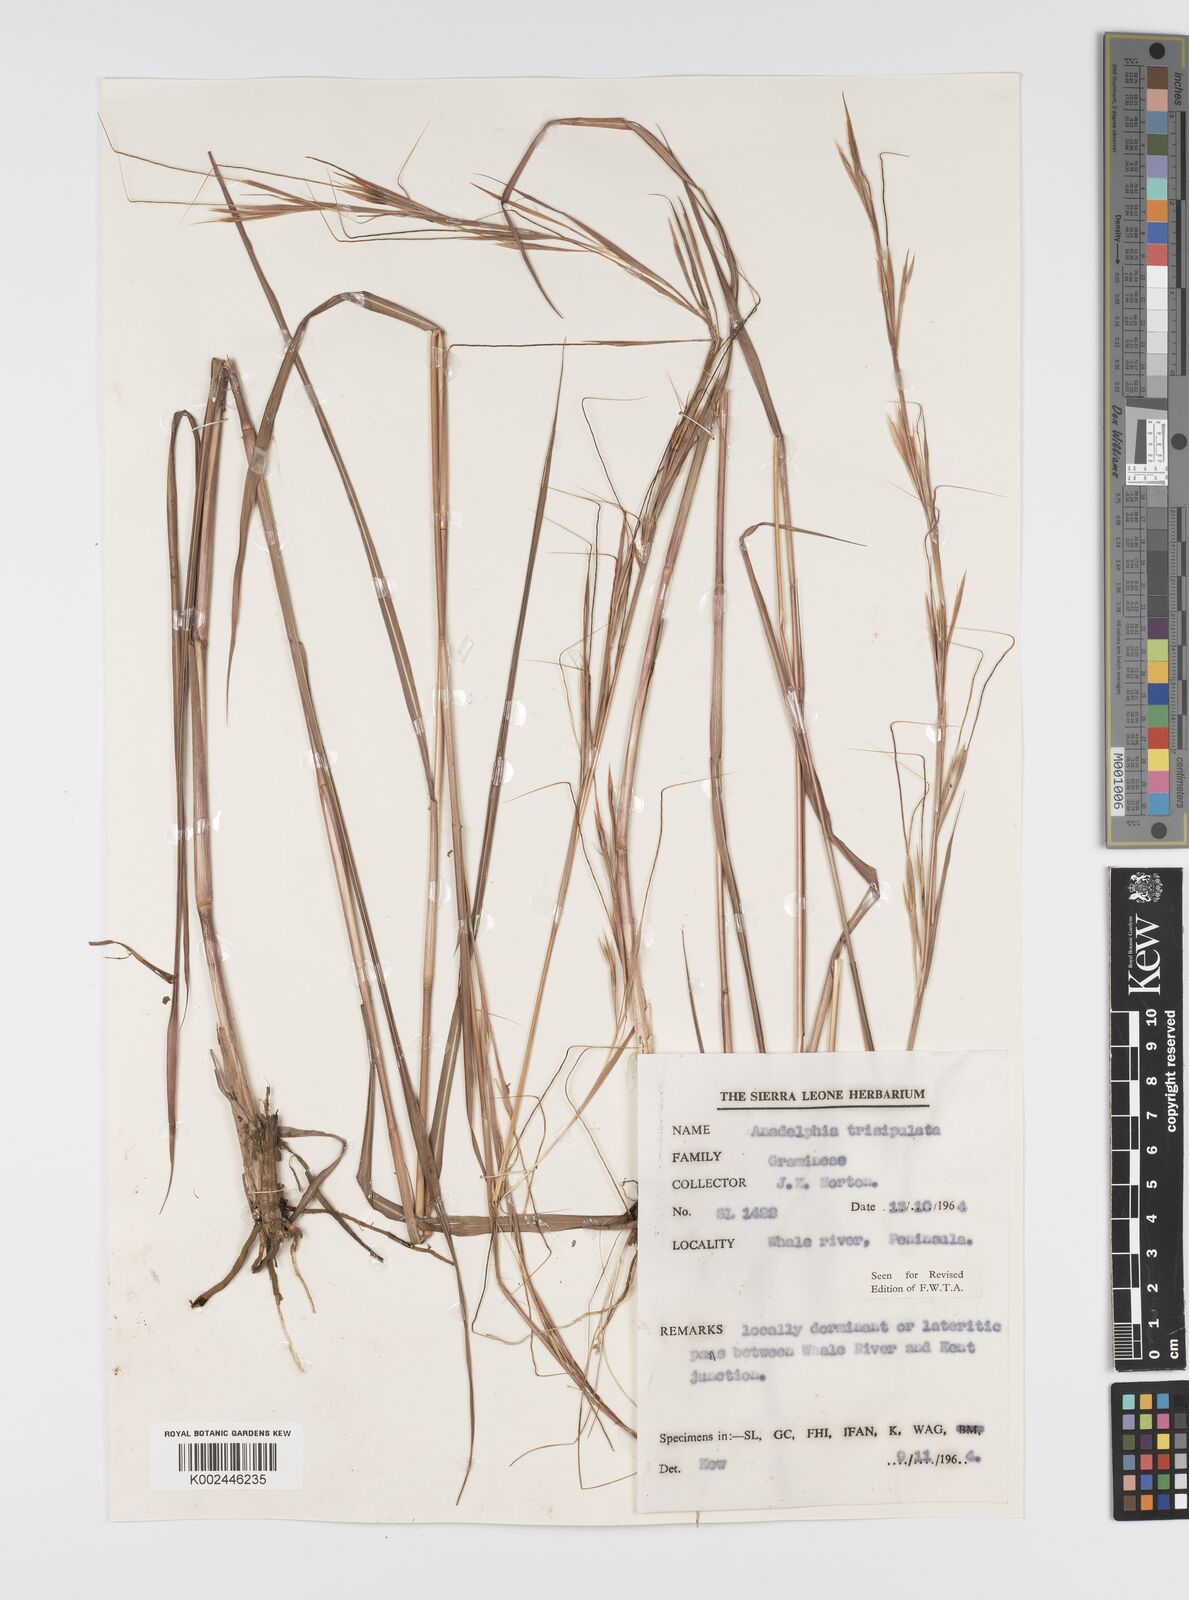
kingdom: Plantae
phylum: Tracheophyta
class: Liliopsida
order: Poales
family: Poaceae
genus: Anadelphia
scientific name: Anadelphia trispiculata
